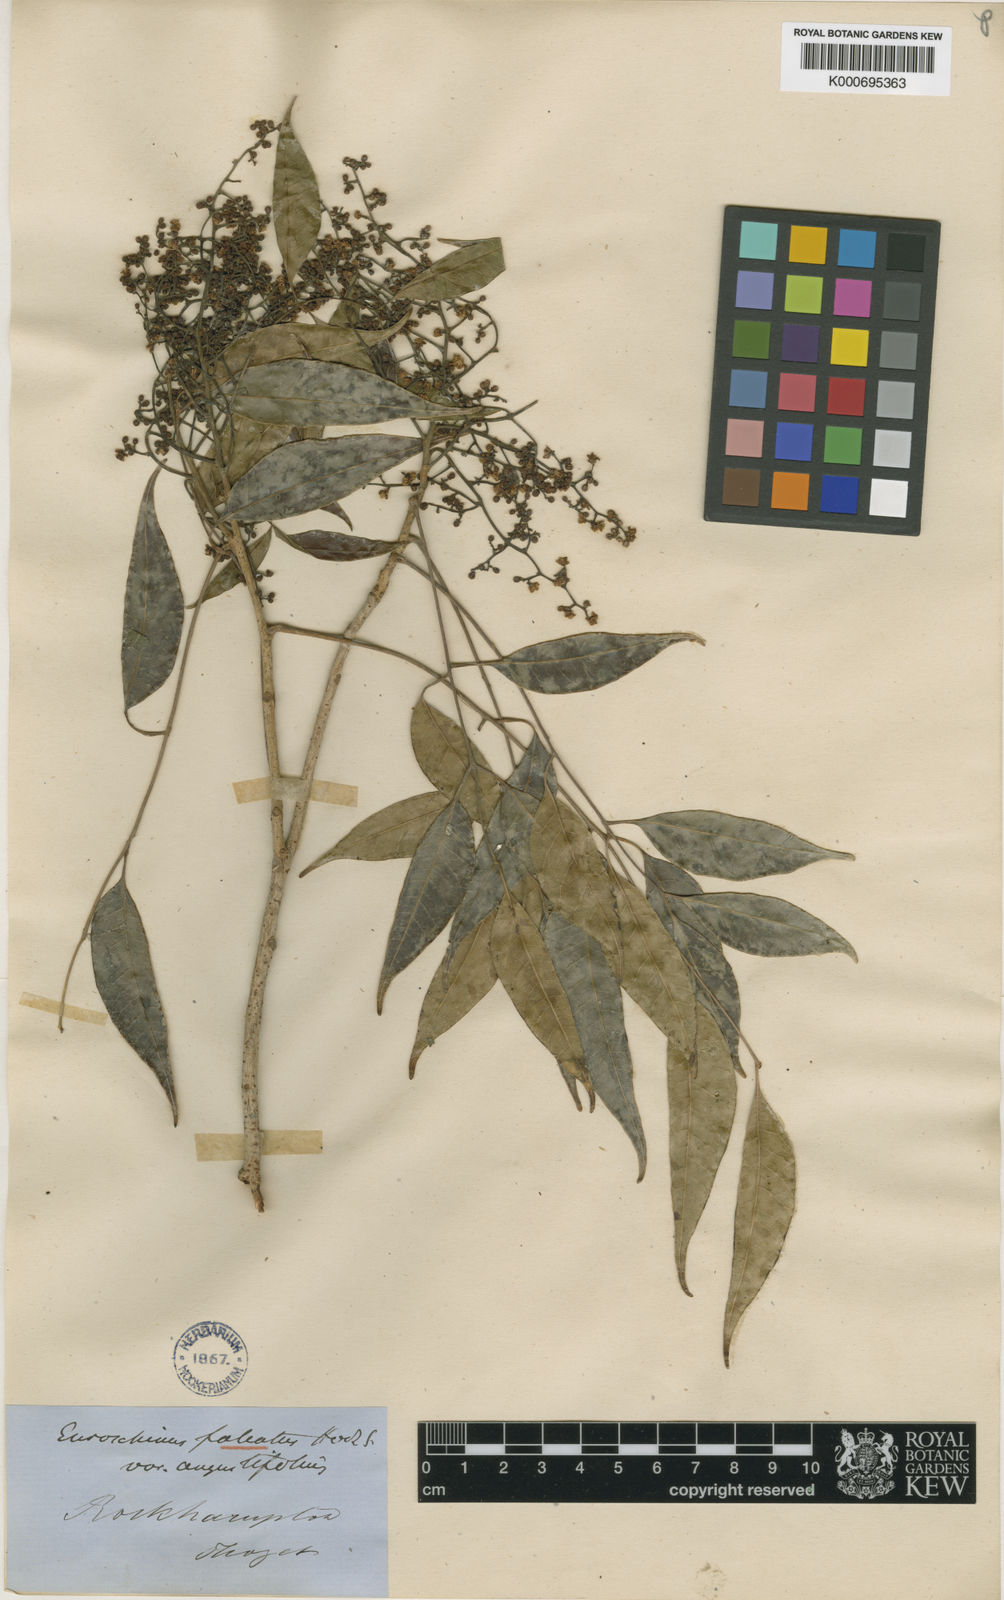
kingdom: Plantae
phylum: Tracheophyta
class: Magnoliopsida
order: Sapindales
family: Anacardiaceae
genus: Euroschinus
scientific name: Euroschinus falcatus
